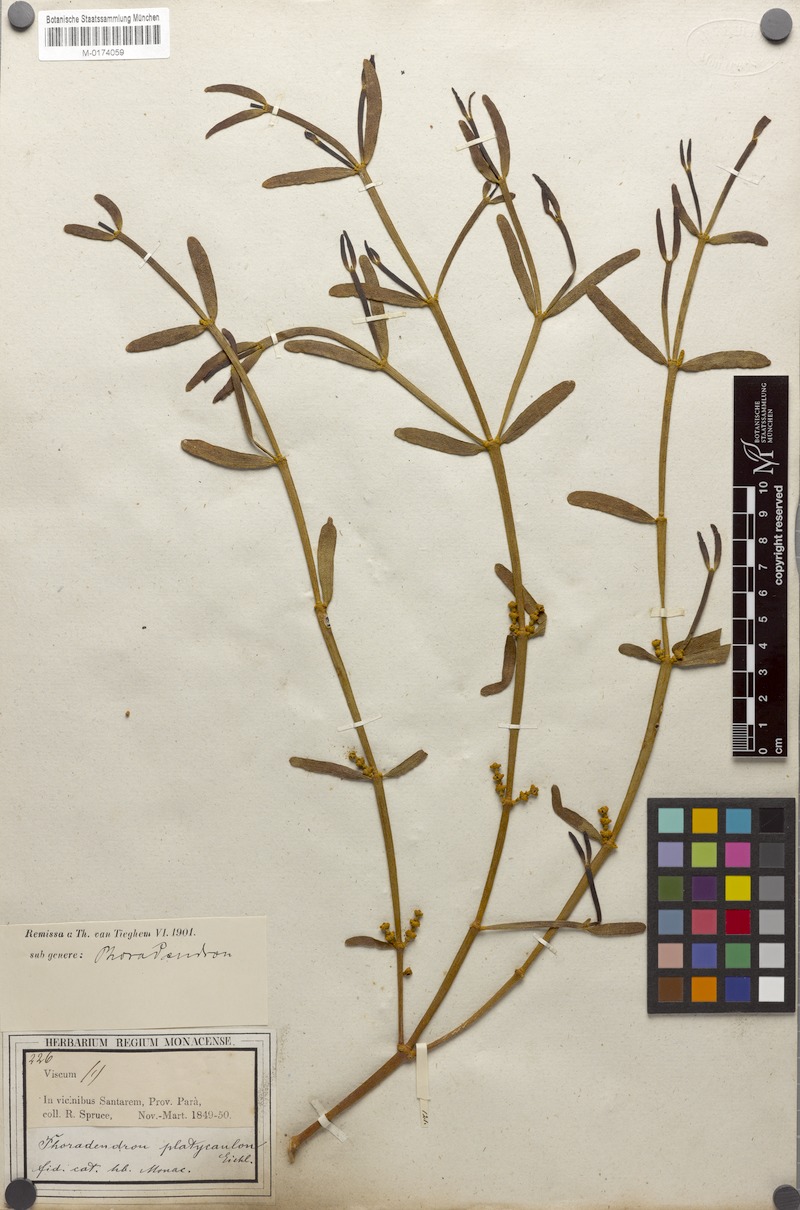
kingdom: Plantae
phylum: Tracheophyta
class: Magnoliopsida
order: Santalales
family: Viscaceae
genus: Phoradendron
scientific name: Phoradendron planiphyllum
